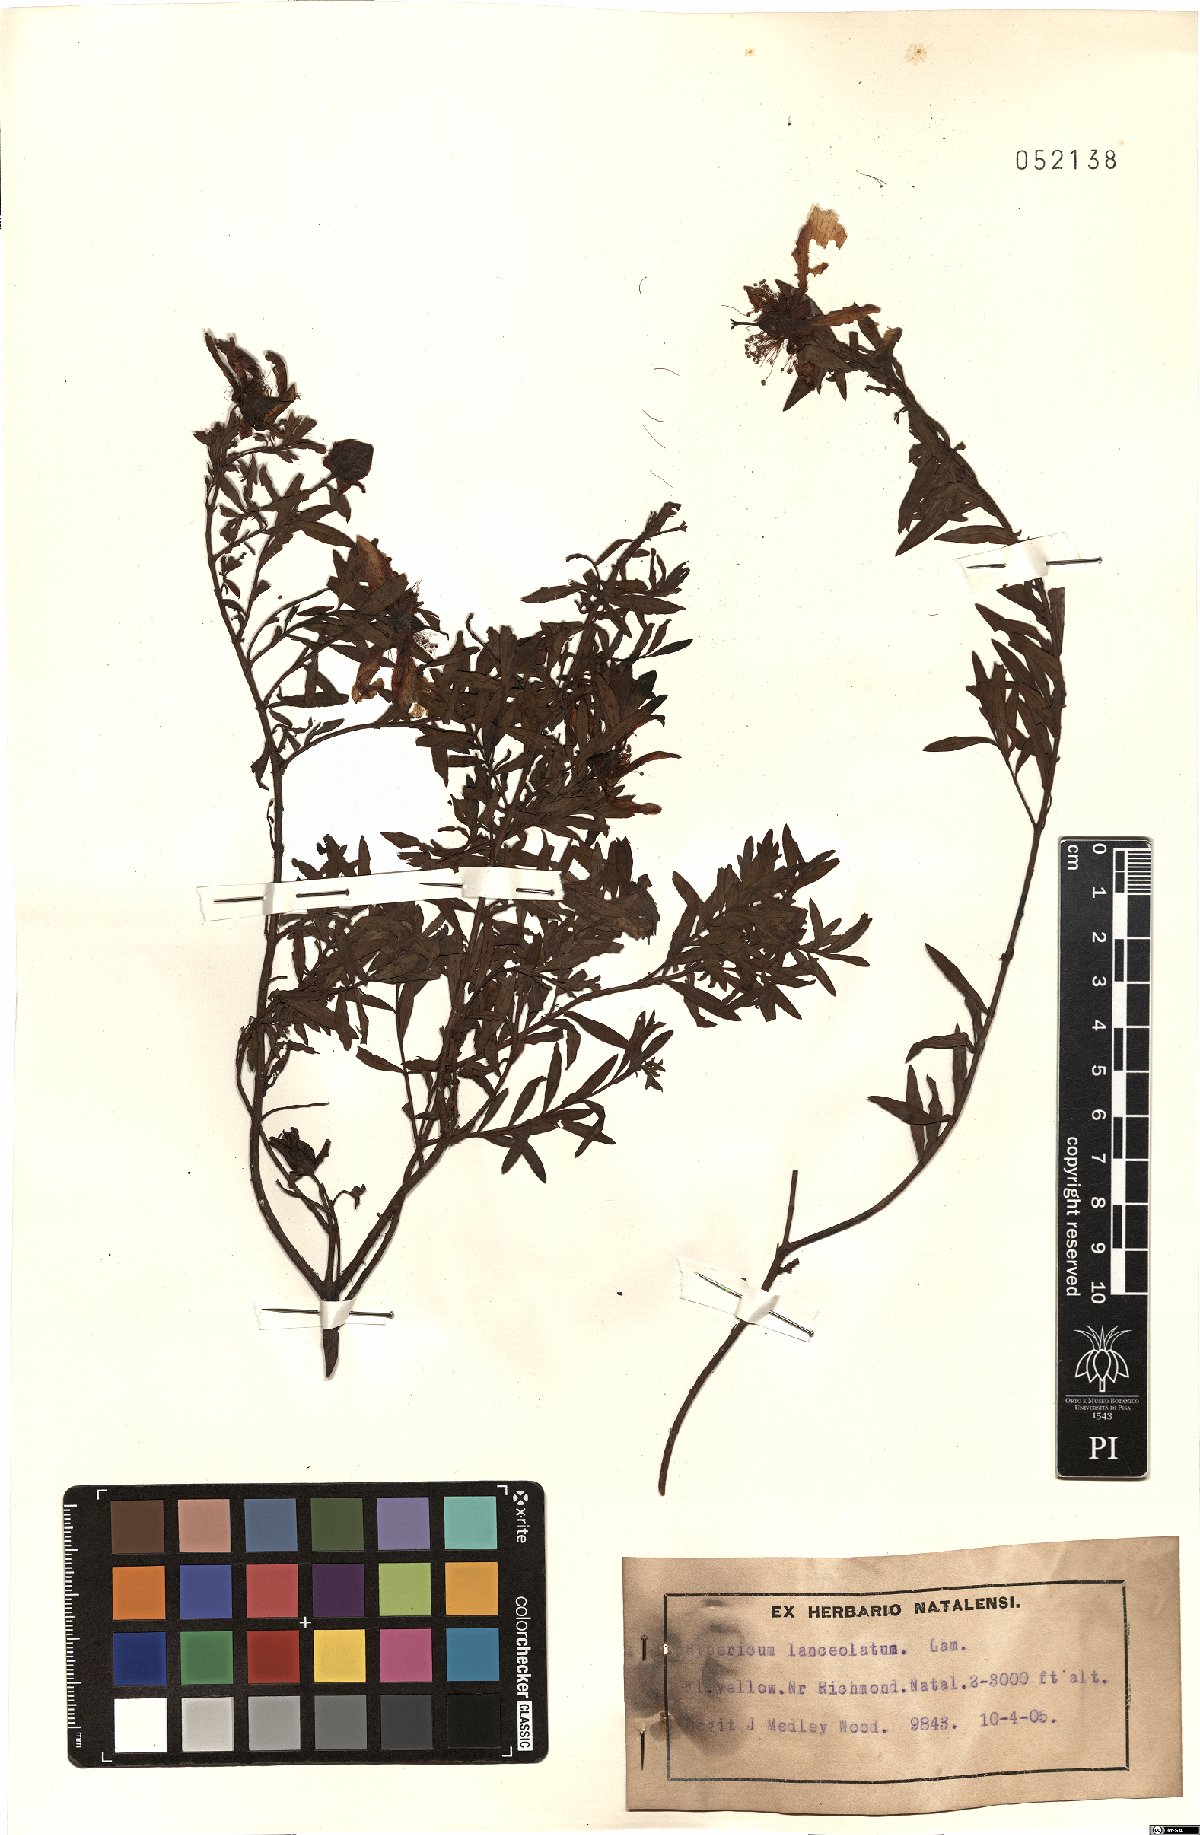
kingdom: Plantae
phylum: Tracheophyta
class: Magnoliopsida
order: Malpighiales
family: Hypericaceae
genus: Hypericum
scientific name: Hypericum lanceolatum
